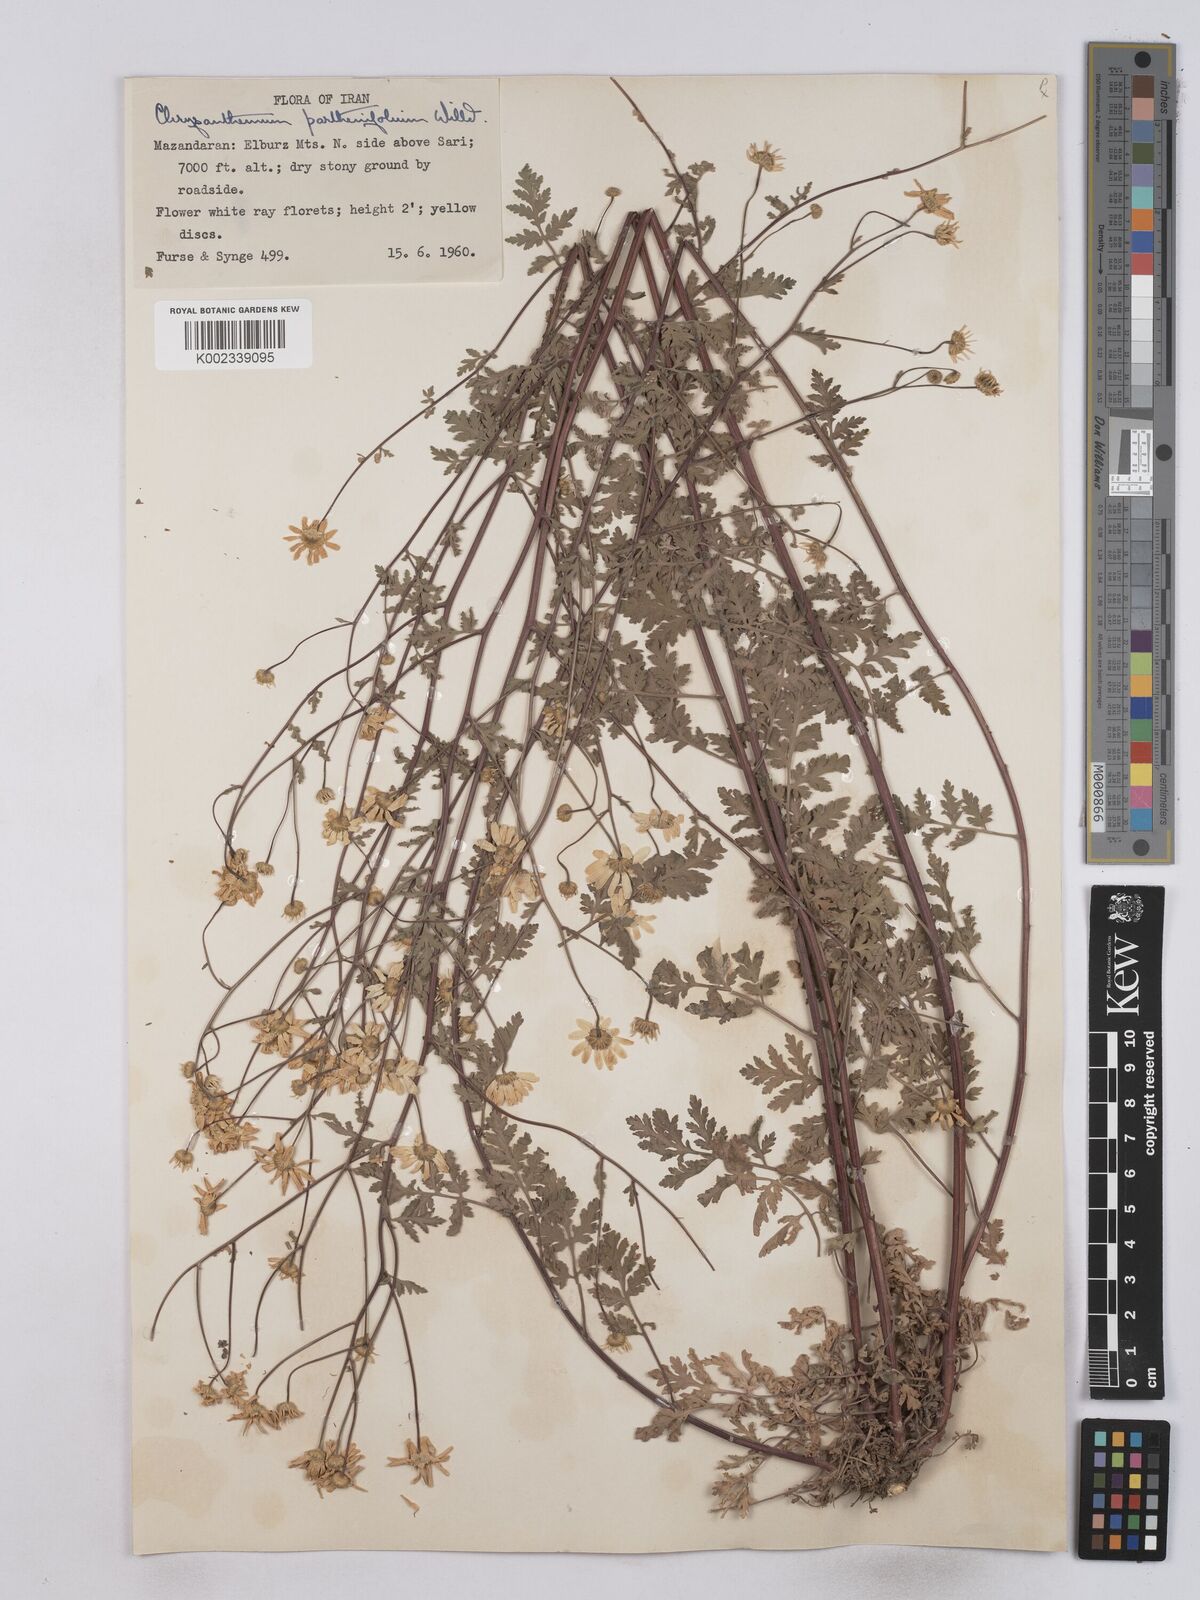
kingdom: Plantae
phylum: Tracheophyta
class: Magnoliopsida
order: Asterales
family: Asteraceae
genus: Tanacetum
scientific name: Tanacetum parthenium
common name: Feverfew
